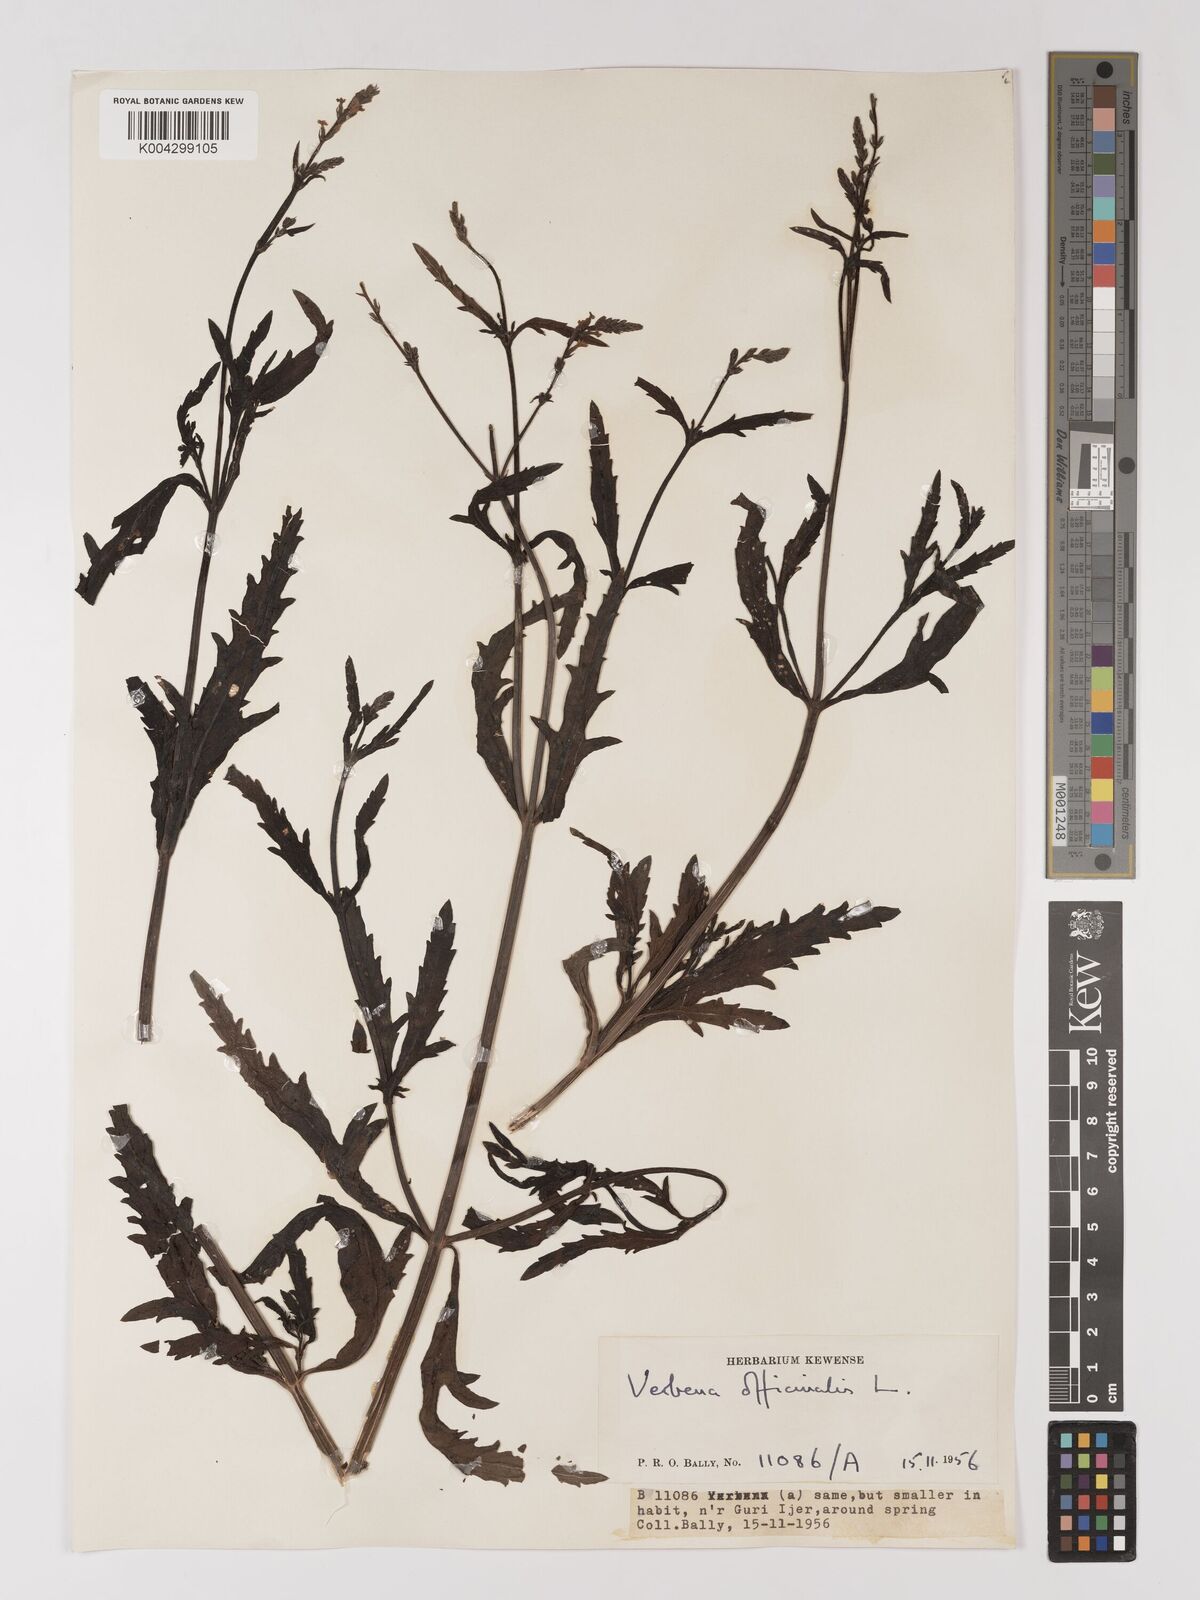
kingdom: Plantae
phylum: Tracheophyta
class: Magnoliopsida
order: Lamiales
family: Verbenaceae
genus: Verbena
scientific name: Verbena officinalis
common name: Vervain
